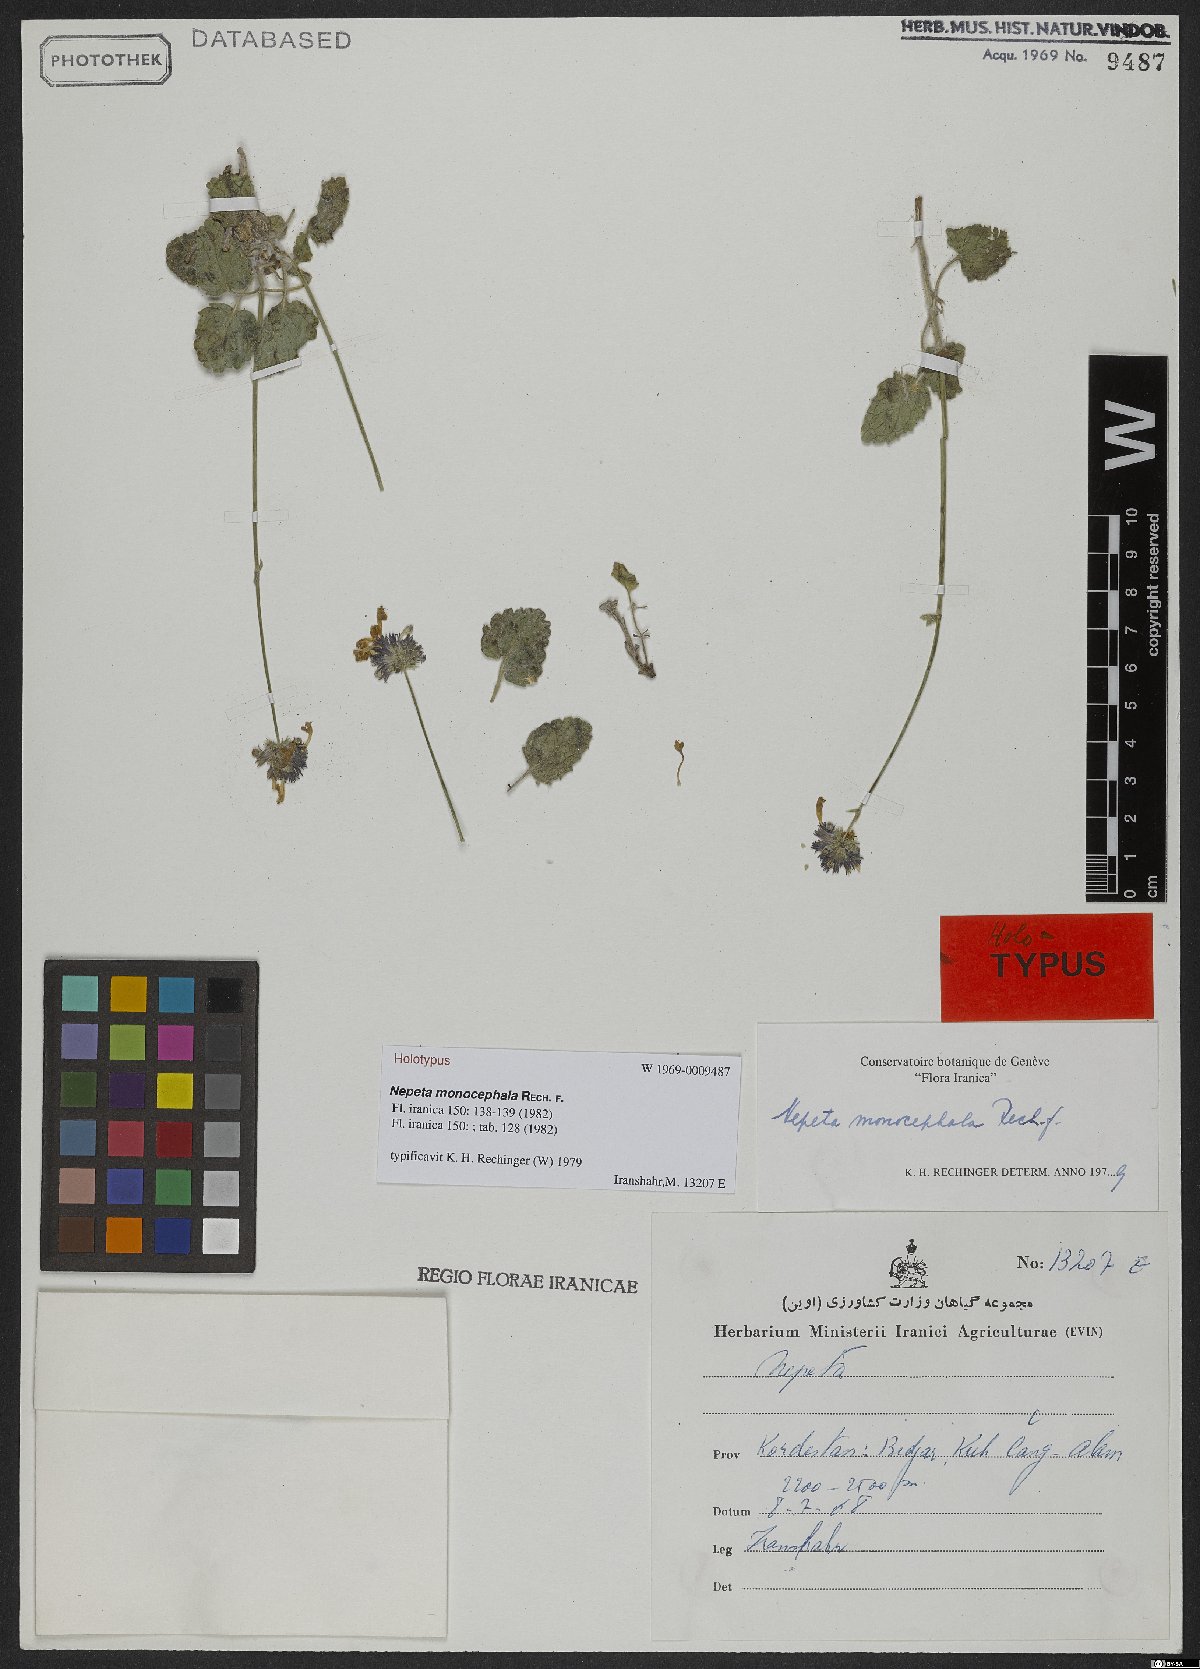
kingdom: Plantae
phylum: Tracheophyta
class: Magnoliopsida
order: Lamiales
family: Lamiaceae
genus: Nepeta
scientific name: Nepeta monocephala
